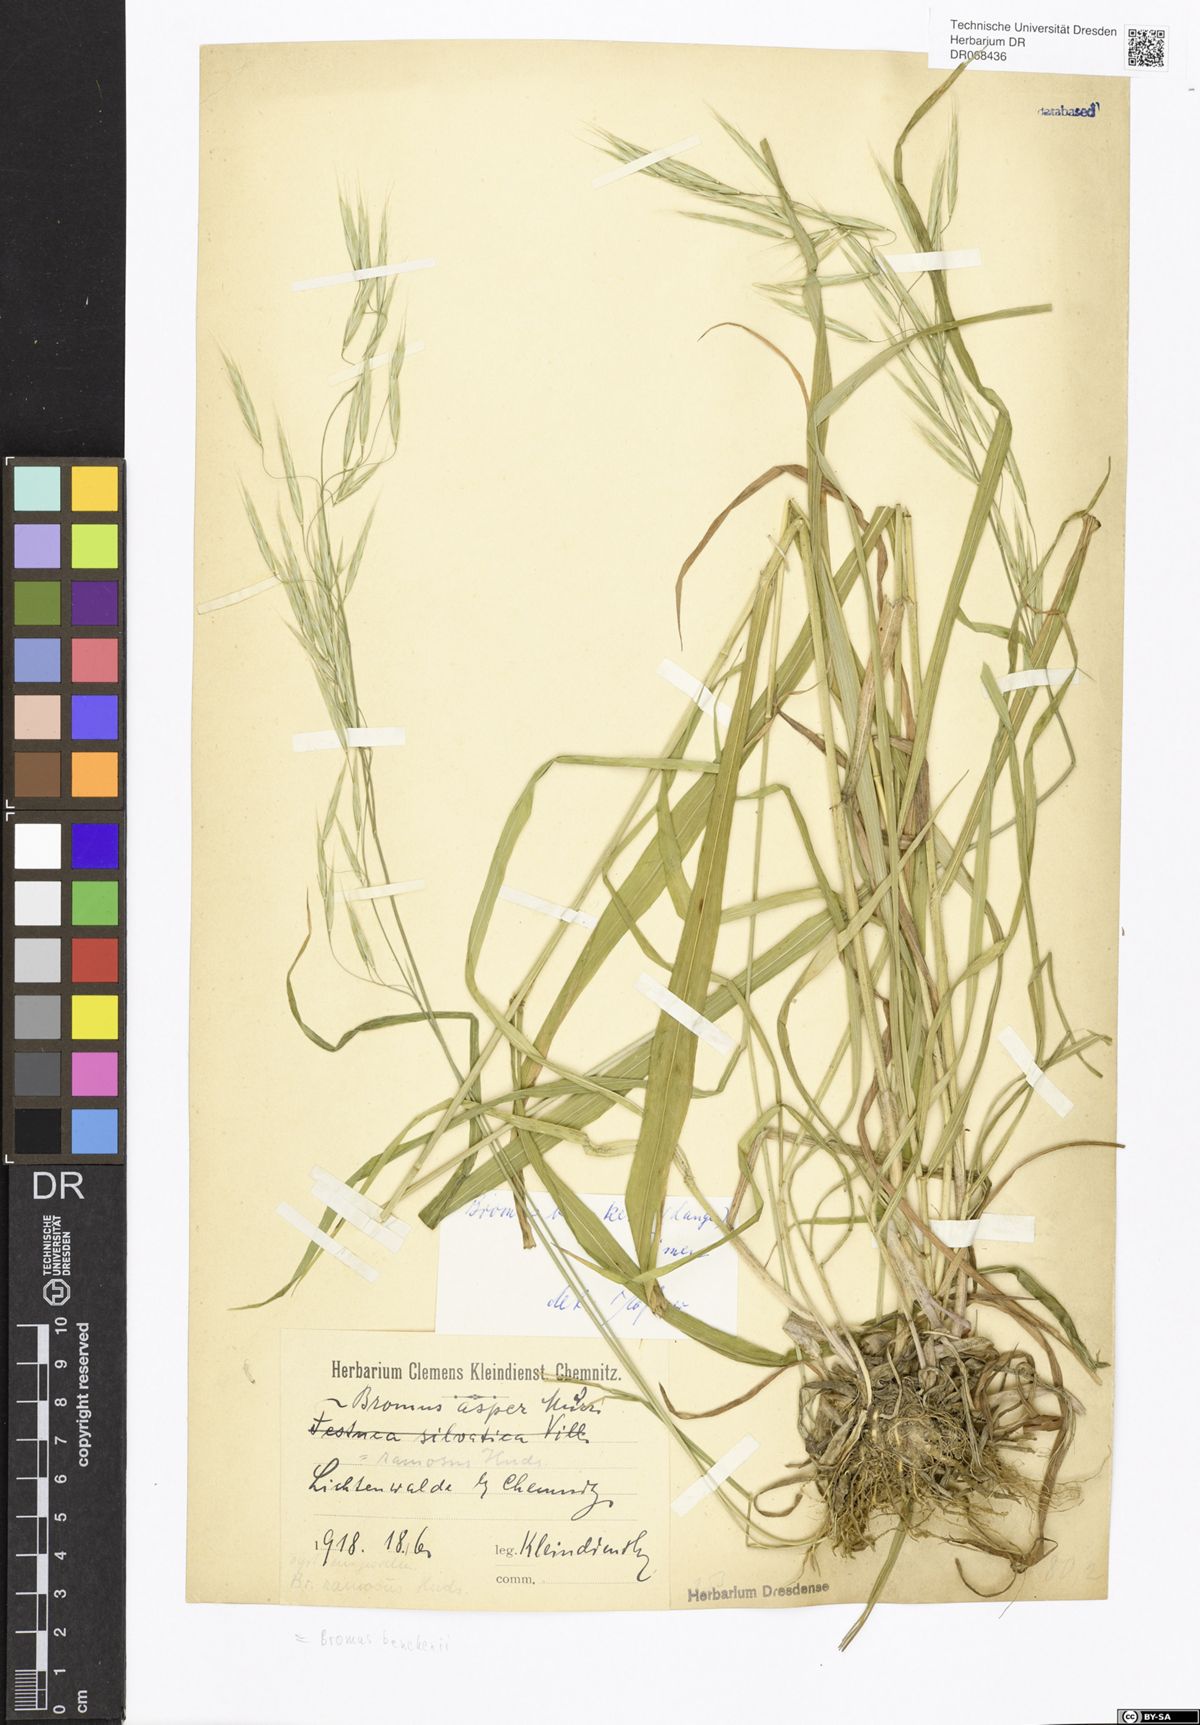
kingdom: Plantae
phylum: Tracheophyta
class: Liliopsida
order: Poales
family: Poaceae
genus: Bromus
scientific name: Bromus benekenii
